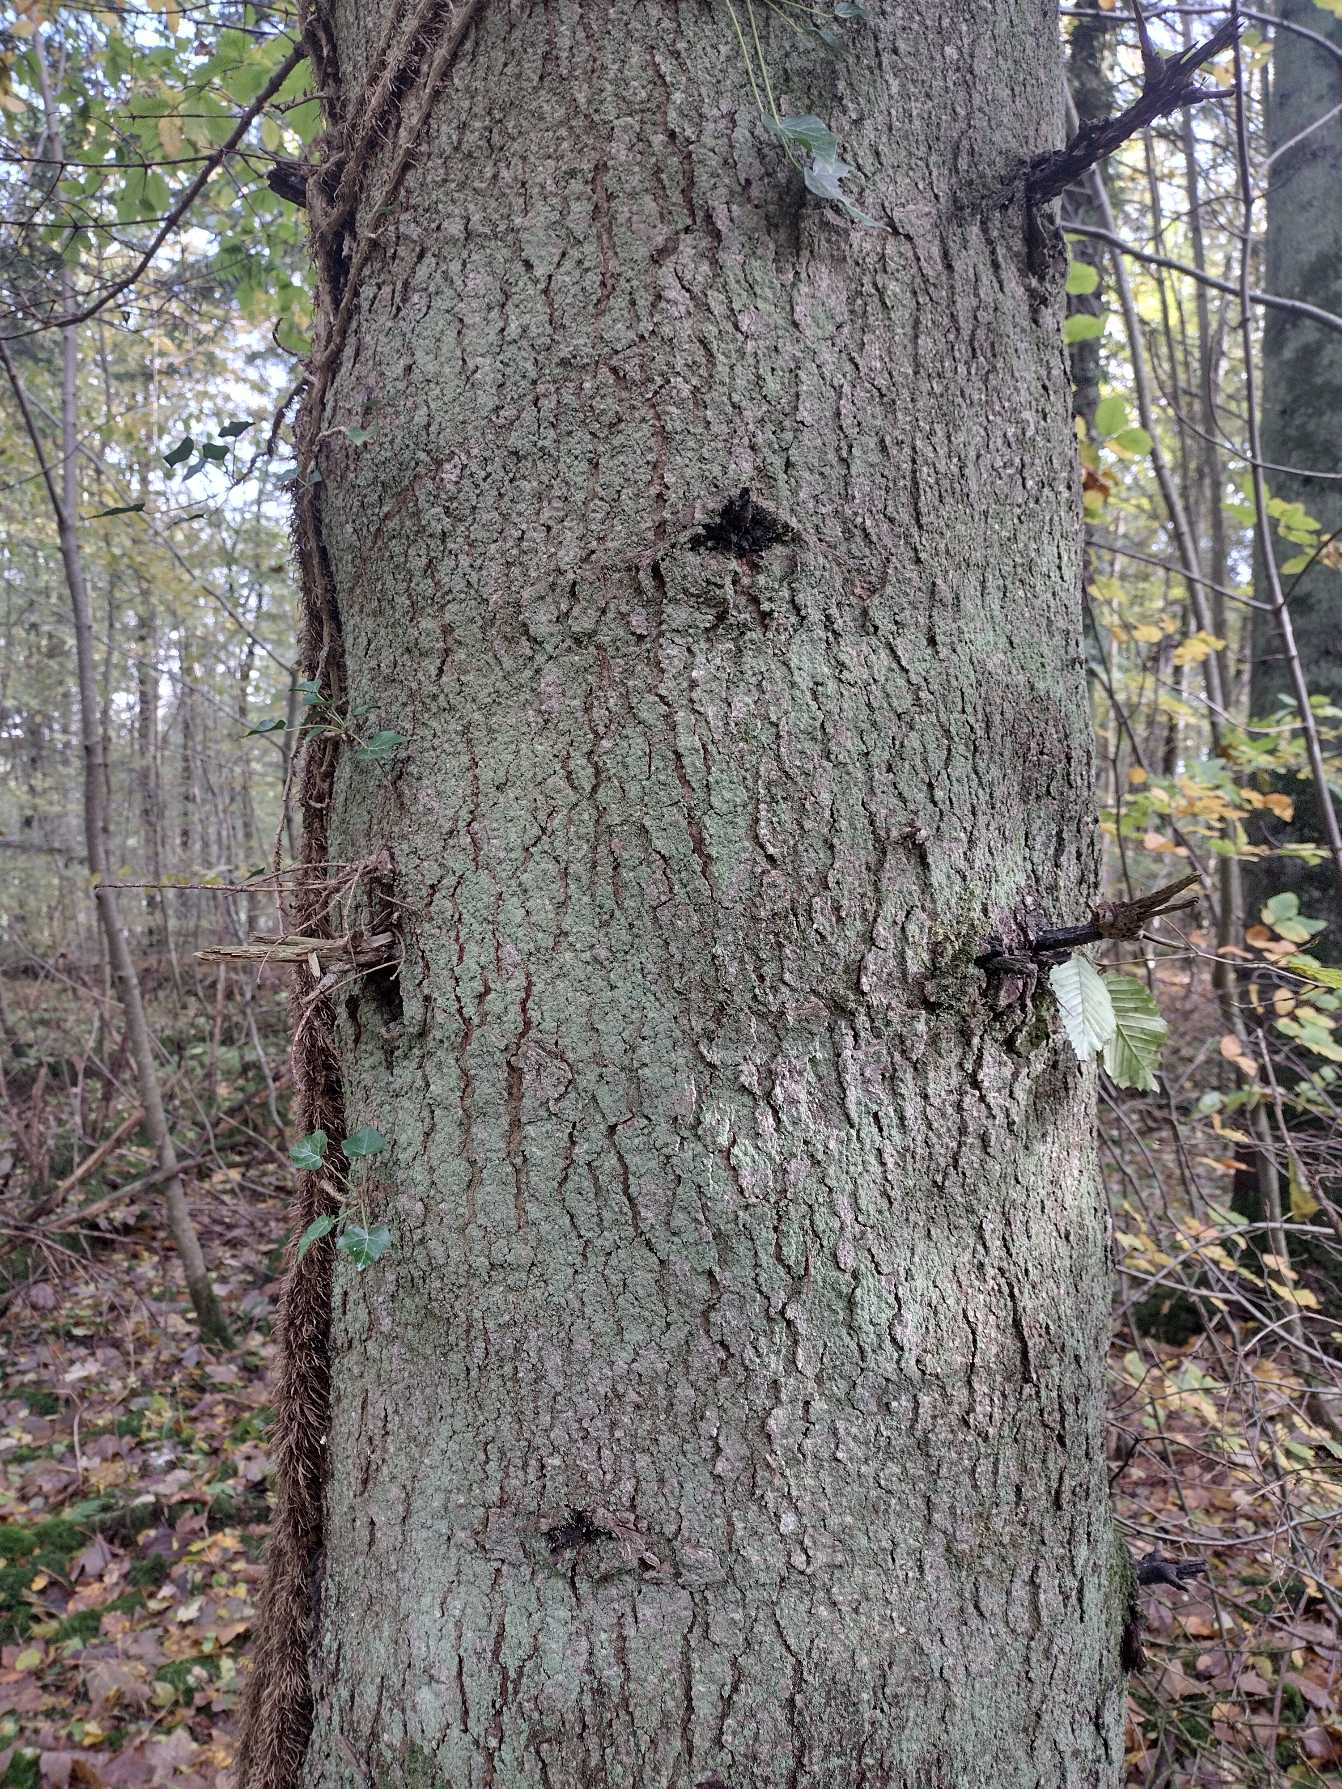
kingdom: Plantae
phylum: Tracheophyta
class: Pinopsida
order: Pinales
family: Pinaceae
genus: Abies
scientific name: Abies alba
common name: Almindelig ædelgran
